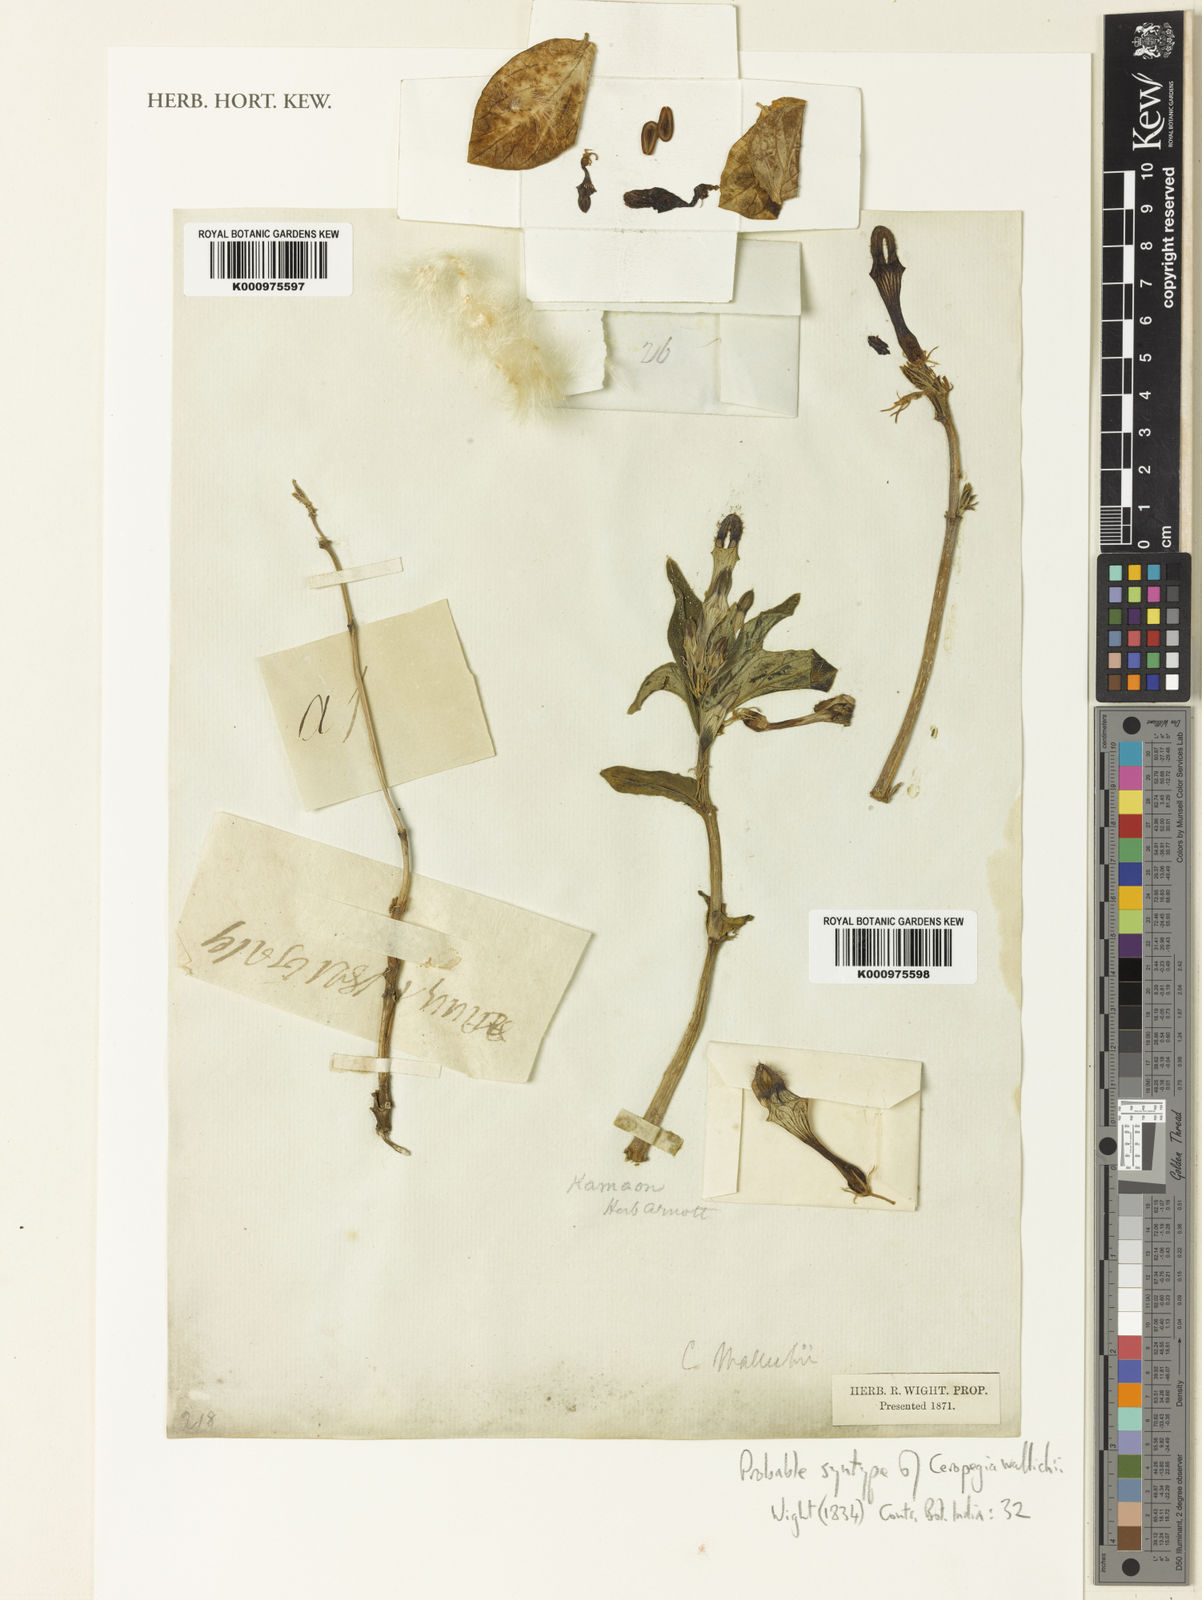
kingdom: Plantae
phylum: Tracheophyta
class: Magnoliopsida
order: Gentianales
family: Apocynaceae
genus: Ceropegia
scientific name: Ceropegia wallichii
